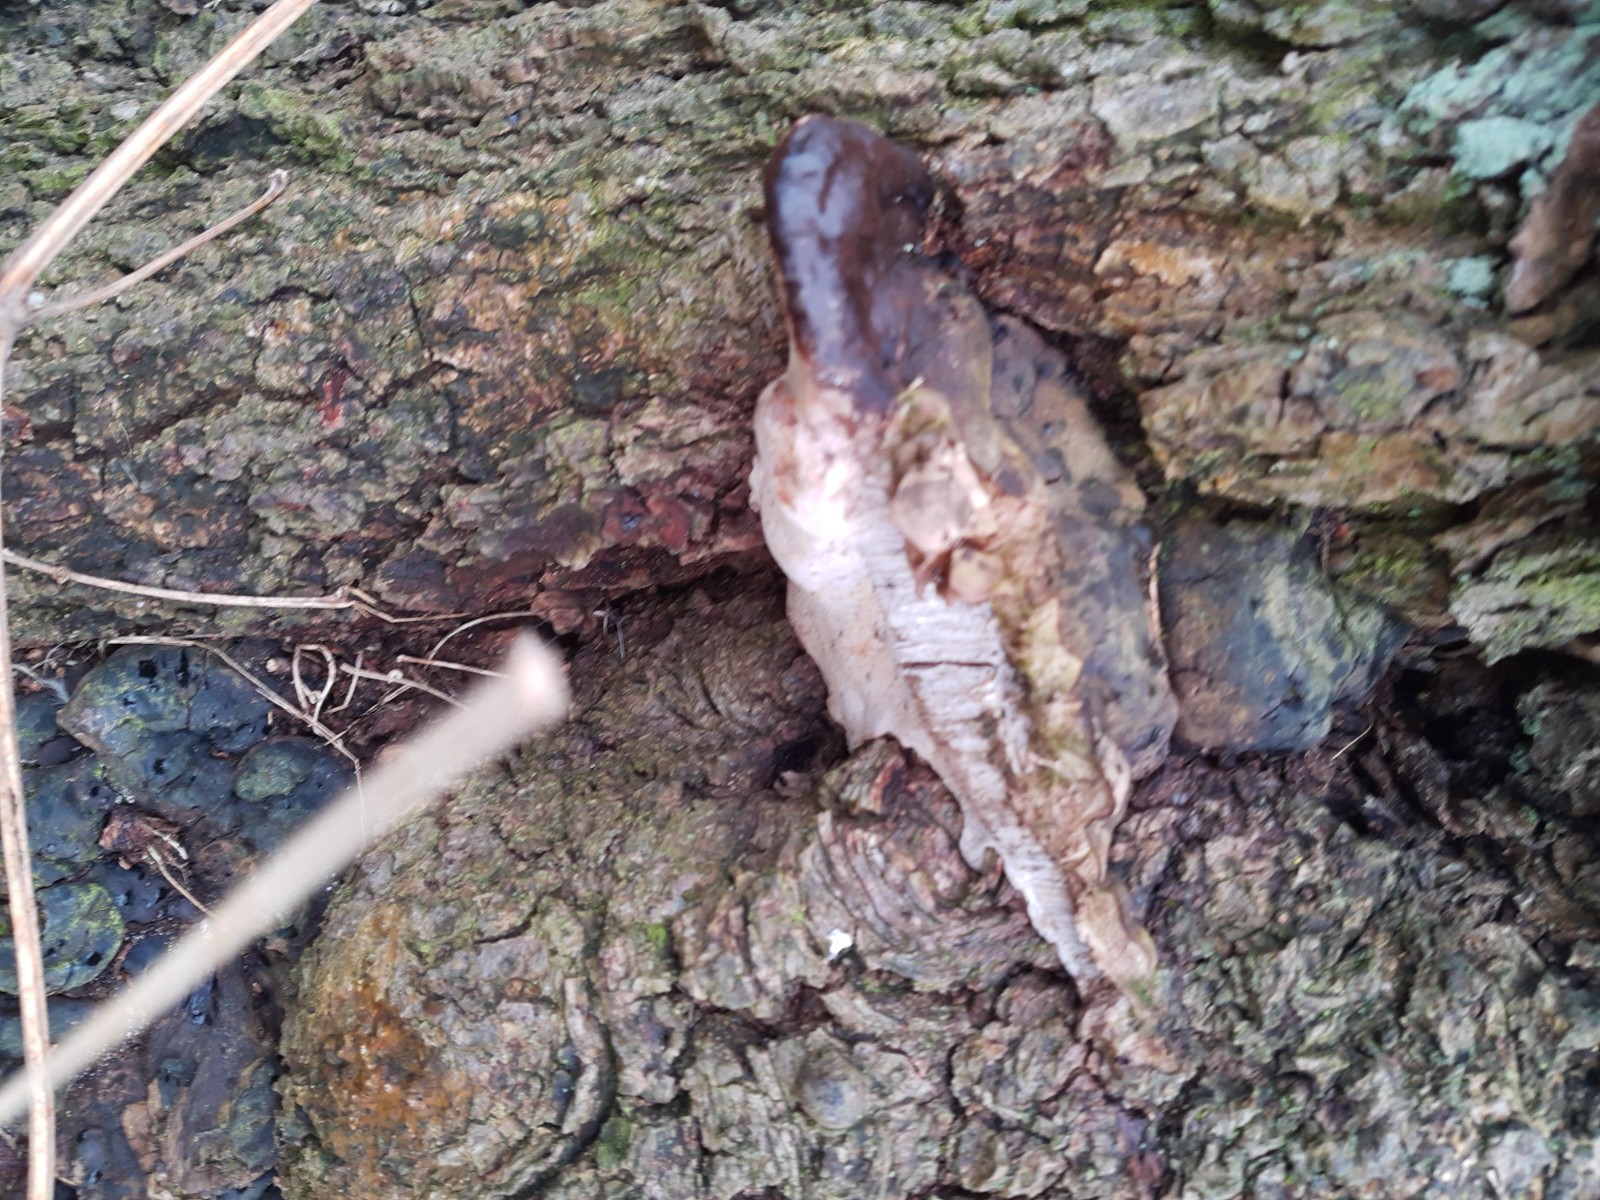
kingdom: Fungi
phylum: Basidiomycota
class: Agaricomycetes
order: Polyporales
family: Polyporaceae
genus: Ganoderma
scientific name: Ganoderma adspersum
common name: grov lakporesvamp
